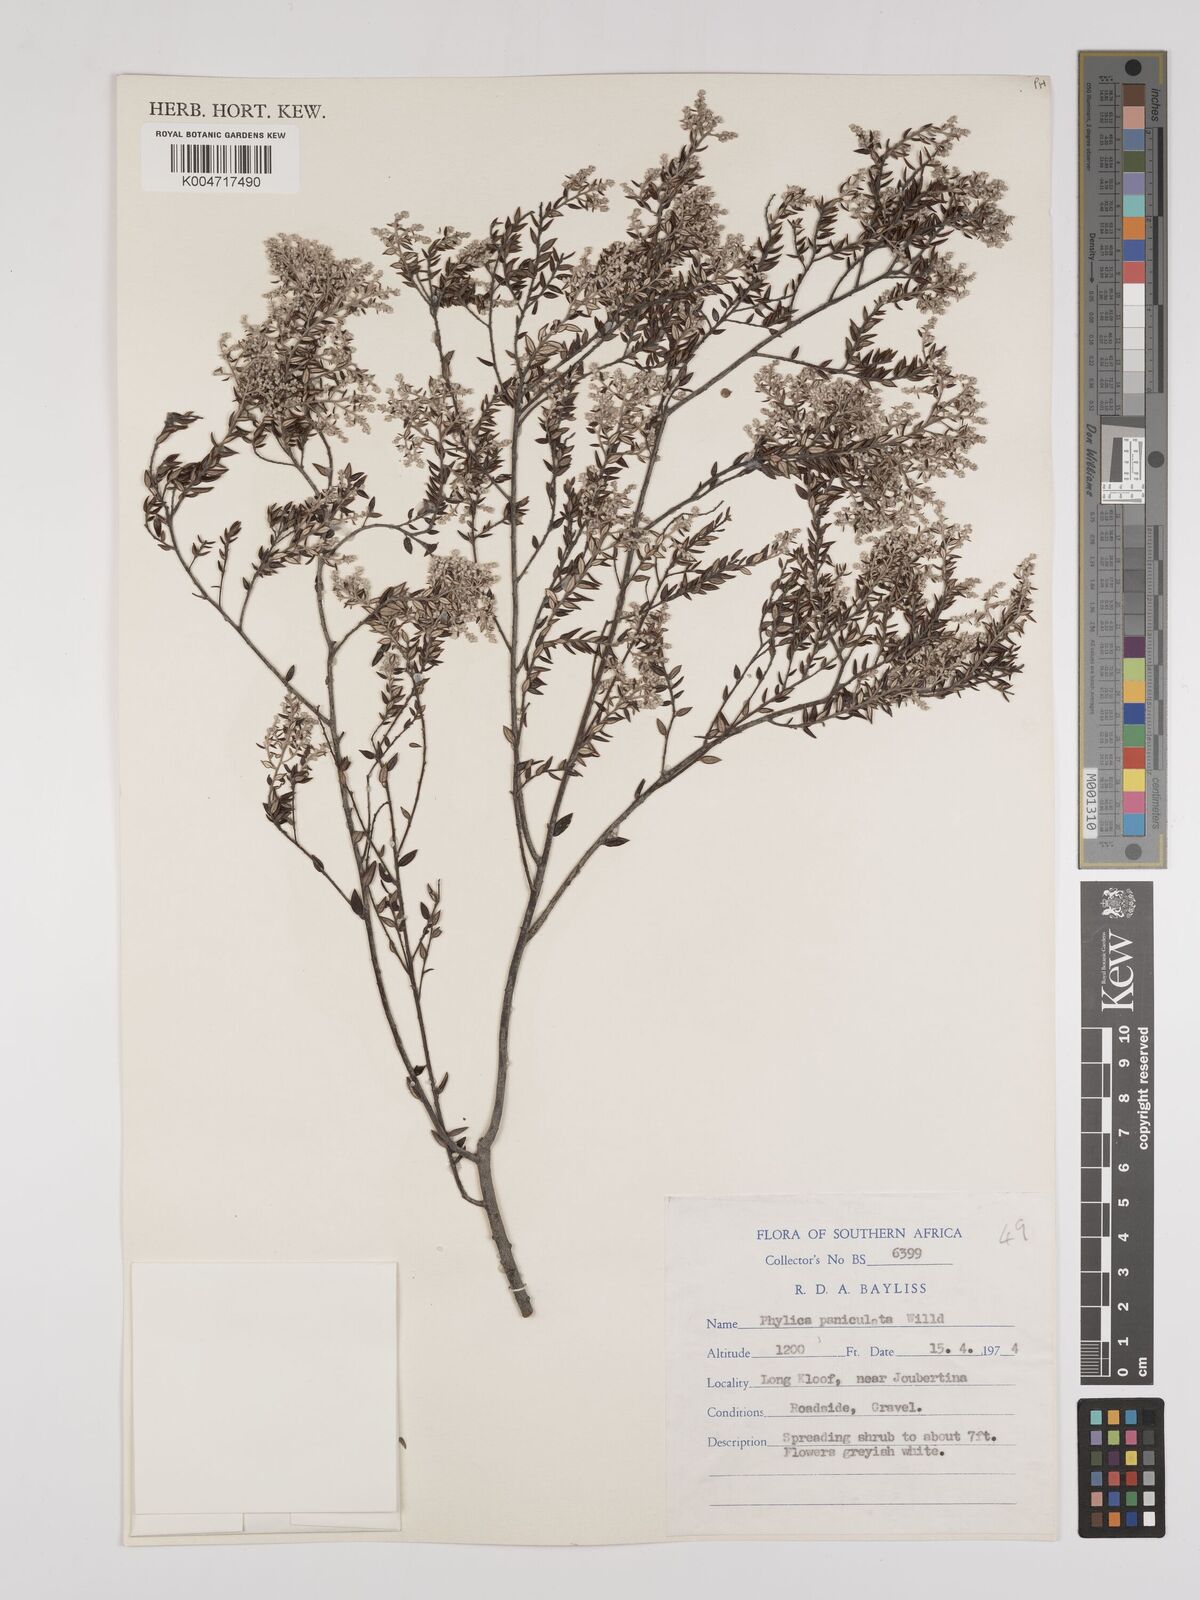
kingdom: Plantae
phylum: Tracheophyta
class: Magnoliopsida
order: Rosales
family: Rhamnaceae
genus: Phylica
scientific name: Phylica paniculata
